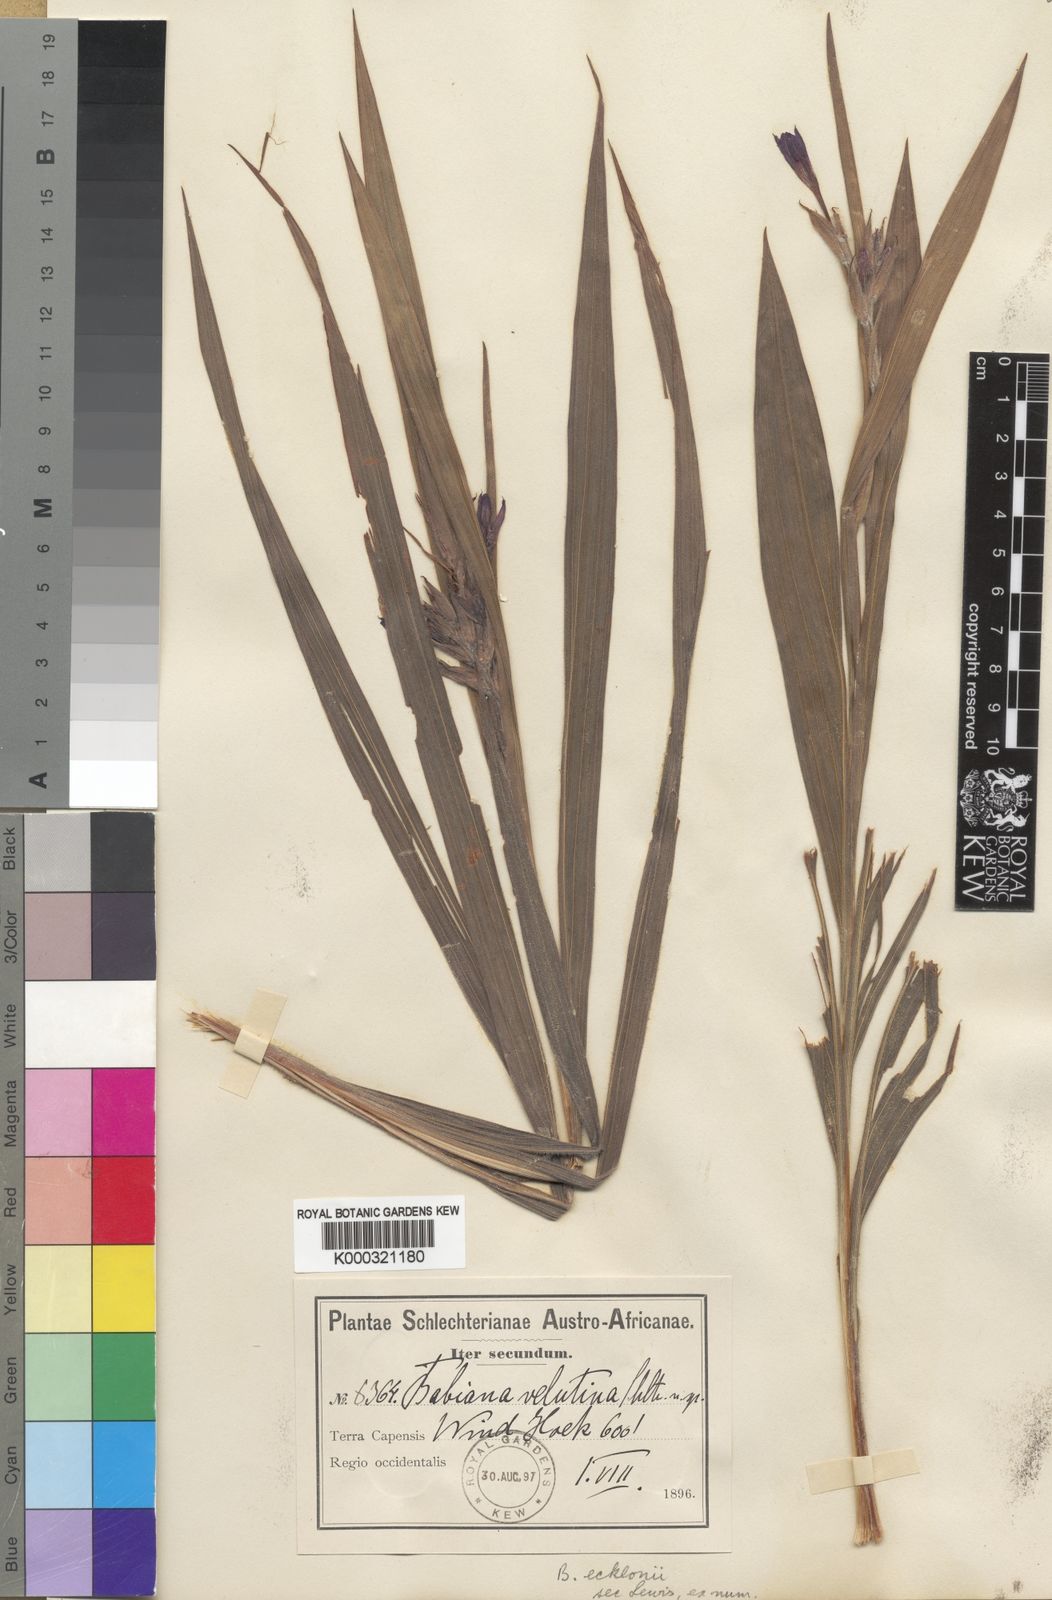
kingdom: Plantae
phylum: Tracheophyta
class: Liliopsida
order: Asparagales
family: Iridaceae
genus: Babiana
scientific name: Babiana ecklonii
